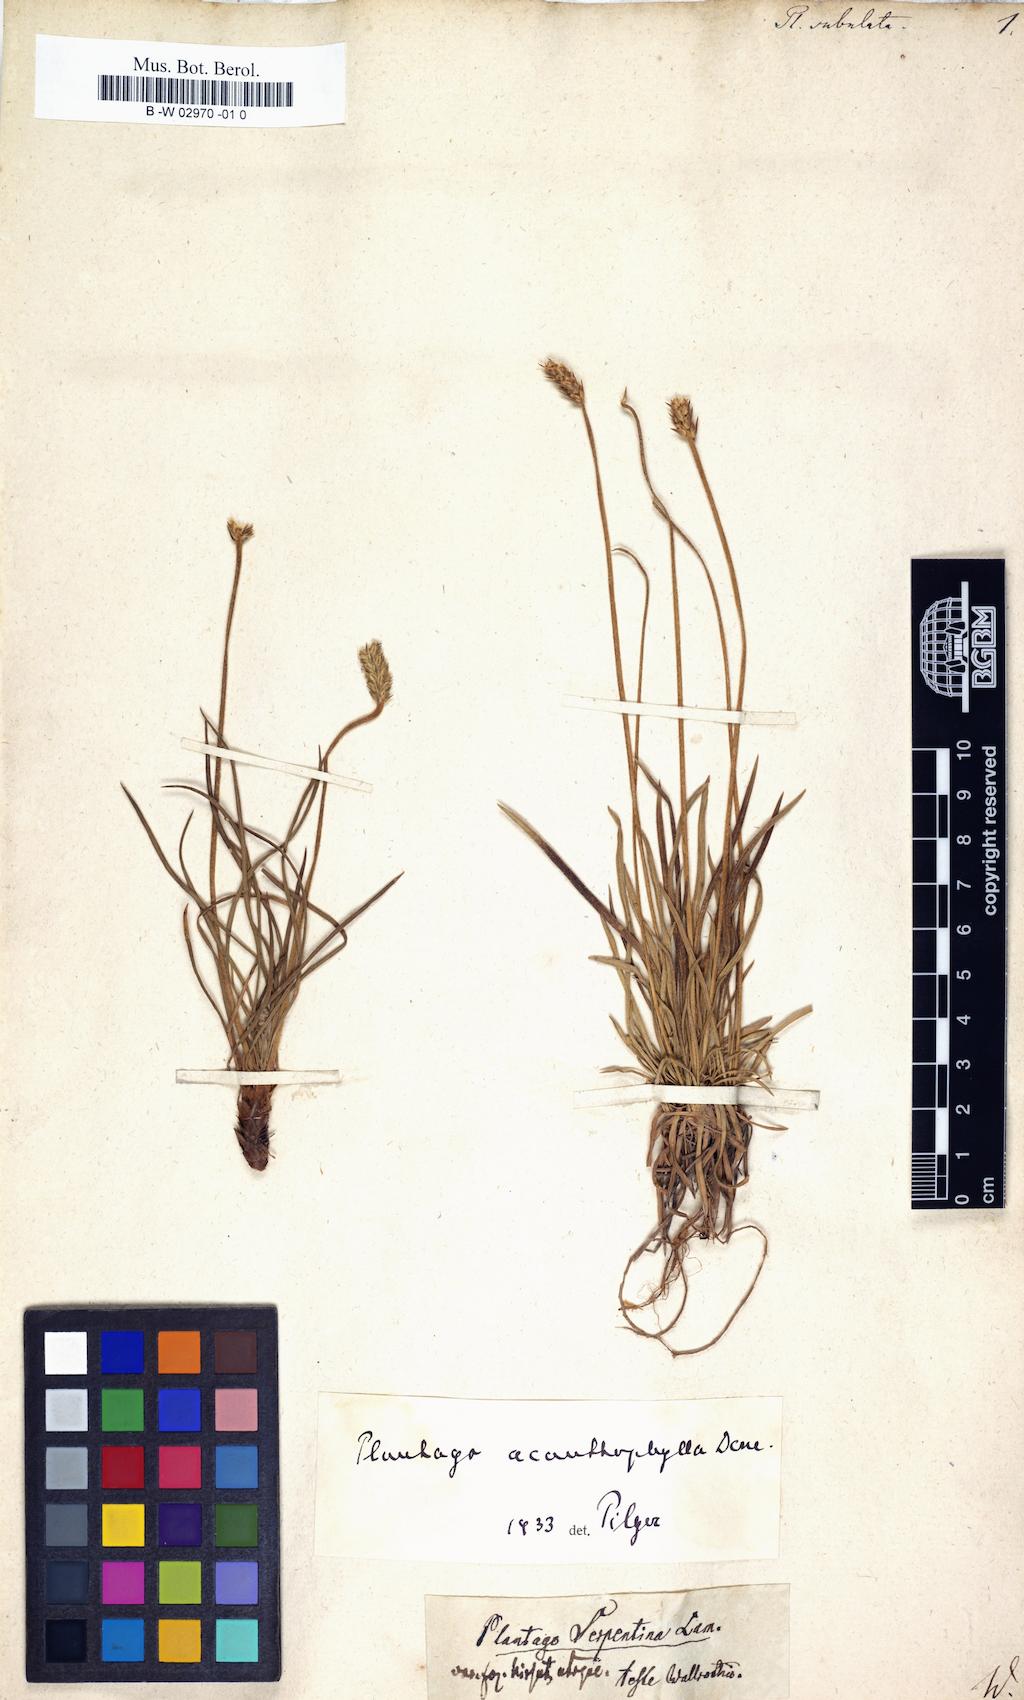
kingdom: Plantae
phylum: Tracheophyta
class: Magnoliopsida
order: Lamiales
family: Plantaginaceae
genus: Plantago
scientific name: Plantago subulata
